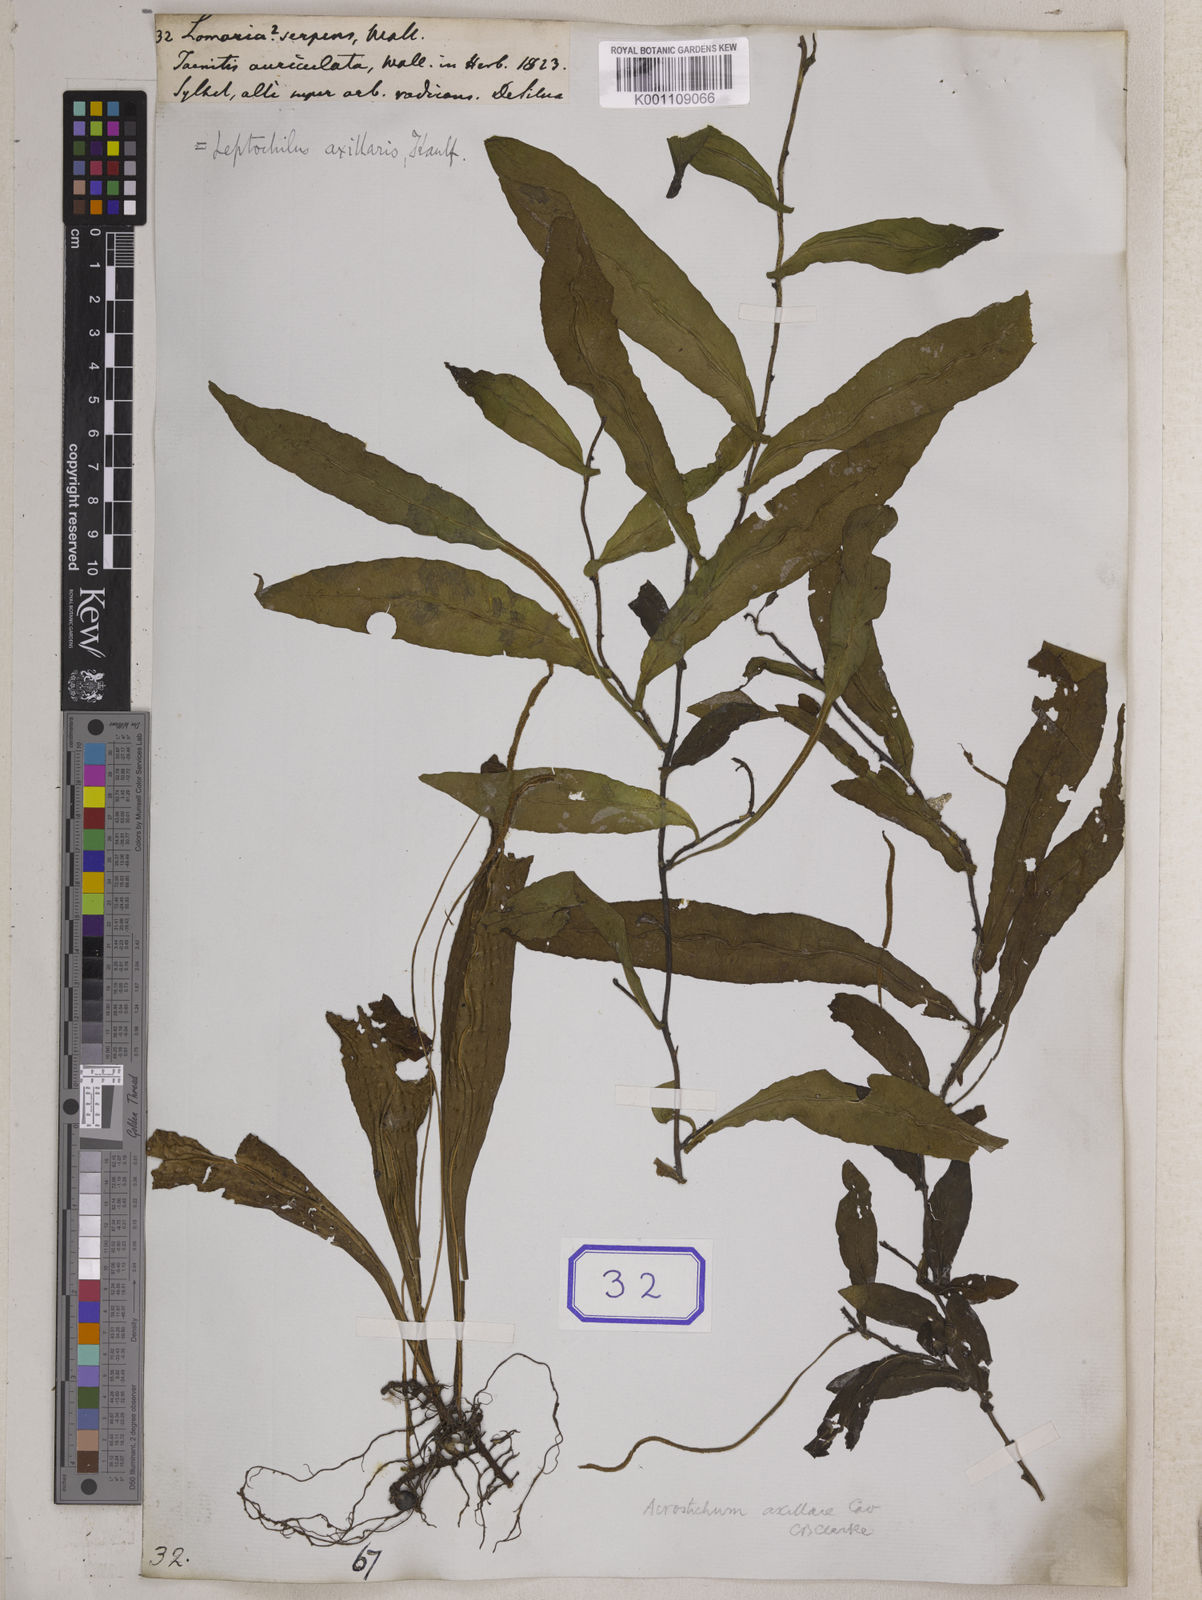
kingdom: Plantae
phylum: Tracheophyta
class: Polypodiopsida
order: Polypodiales
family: Polypodiaceae
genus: Leptochilus
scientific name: Leptochilus axillaris
